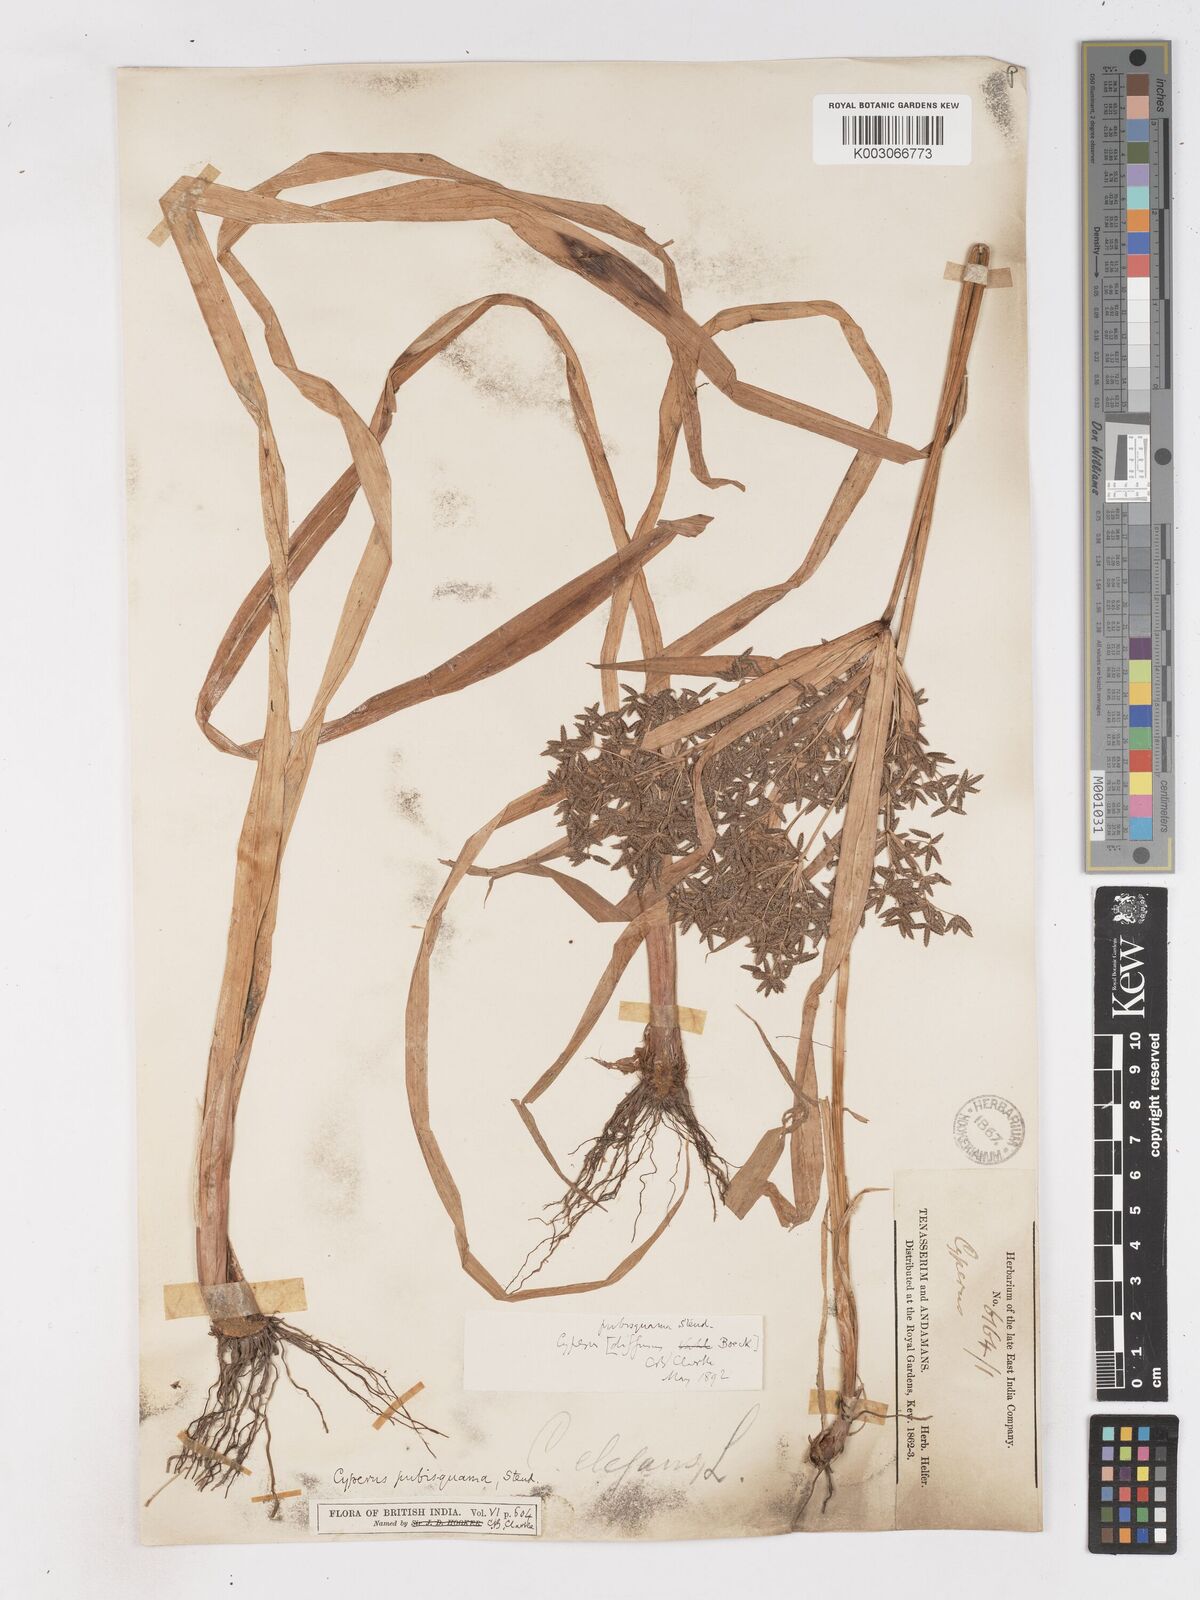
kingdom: Plantae
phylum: Tracheophyta
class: Liliopsida
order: Poales
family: Cyperaceae
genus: Cyperus
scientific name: Cyperus diffusus
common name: Dwarf umbrella grass
